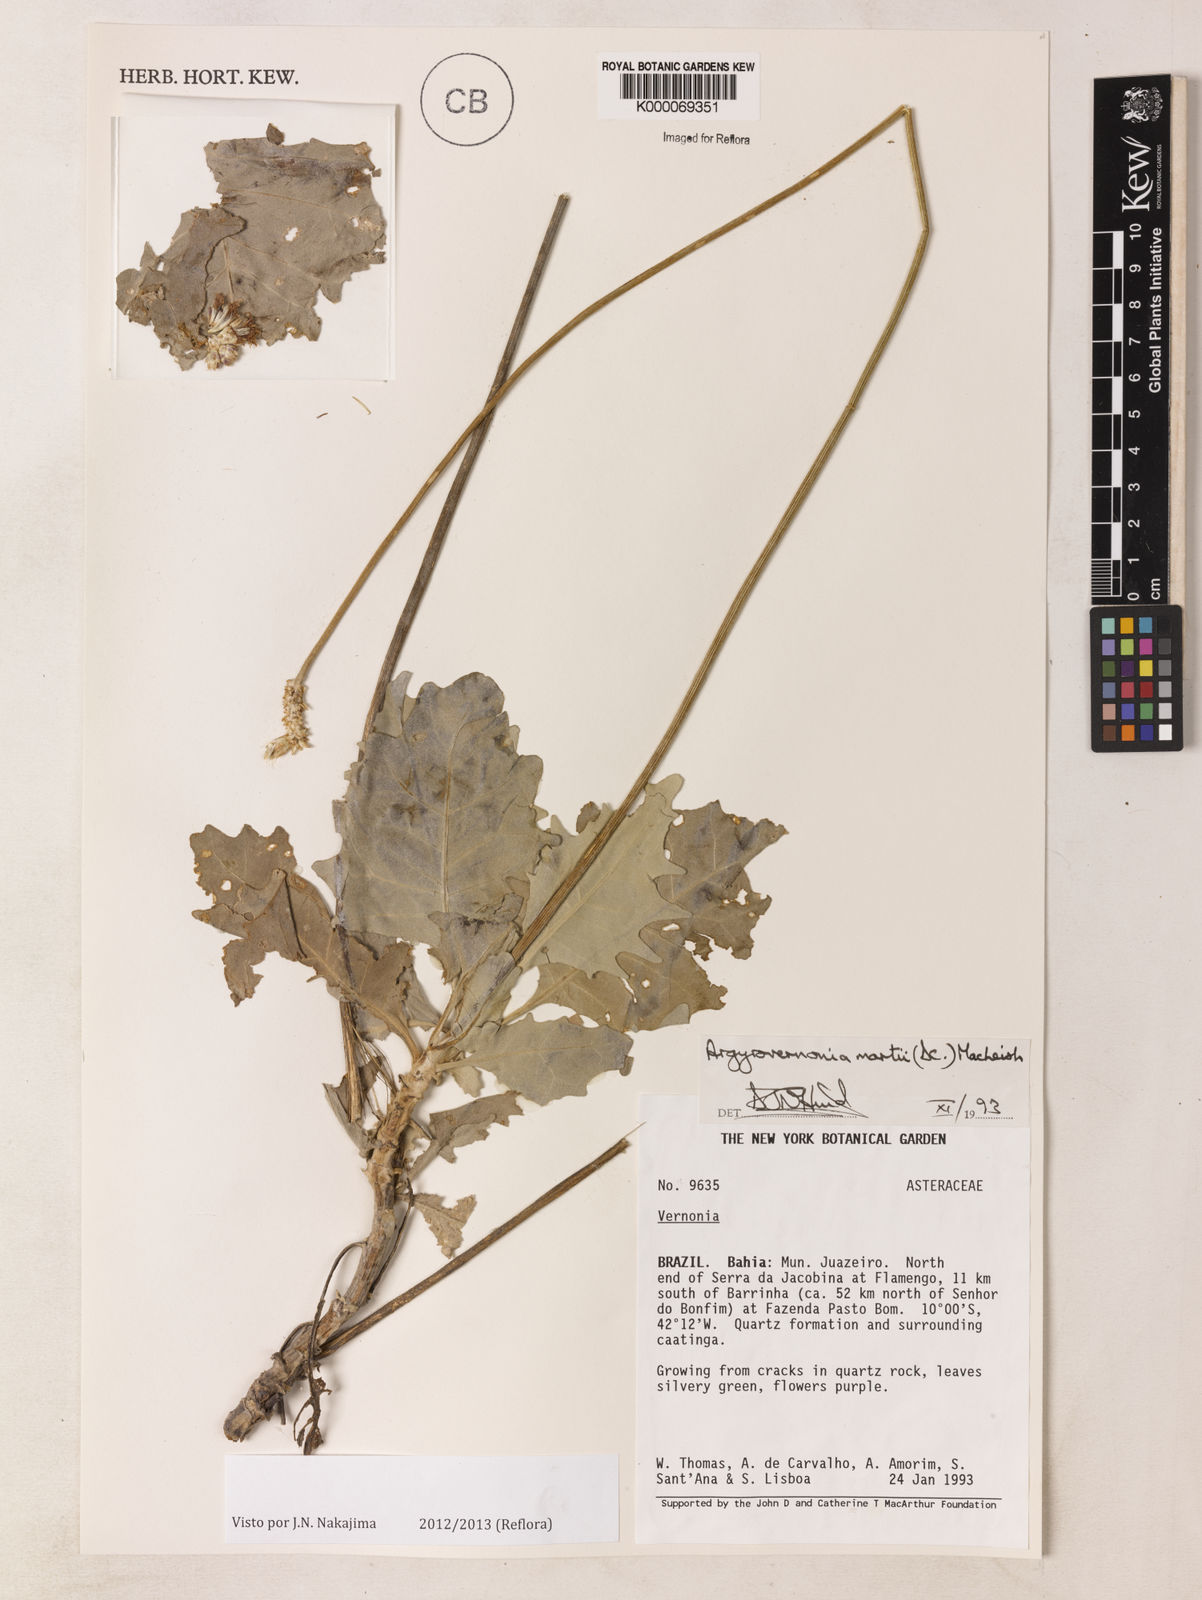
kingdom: Plantae
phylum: Tracheophyta
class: Magnoliopsida
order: Asterales
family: Asteraceae
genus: Chresta
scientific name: Chresta martii
